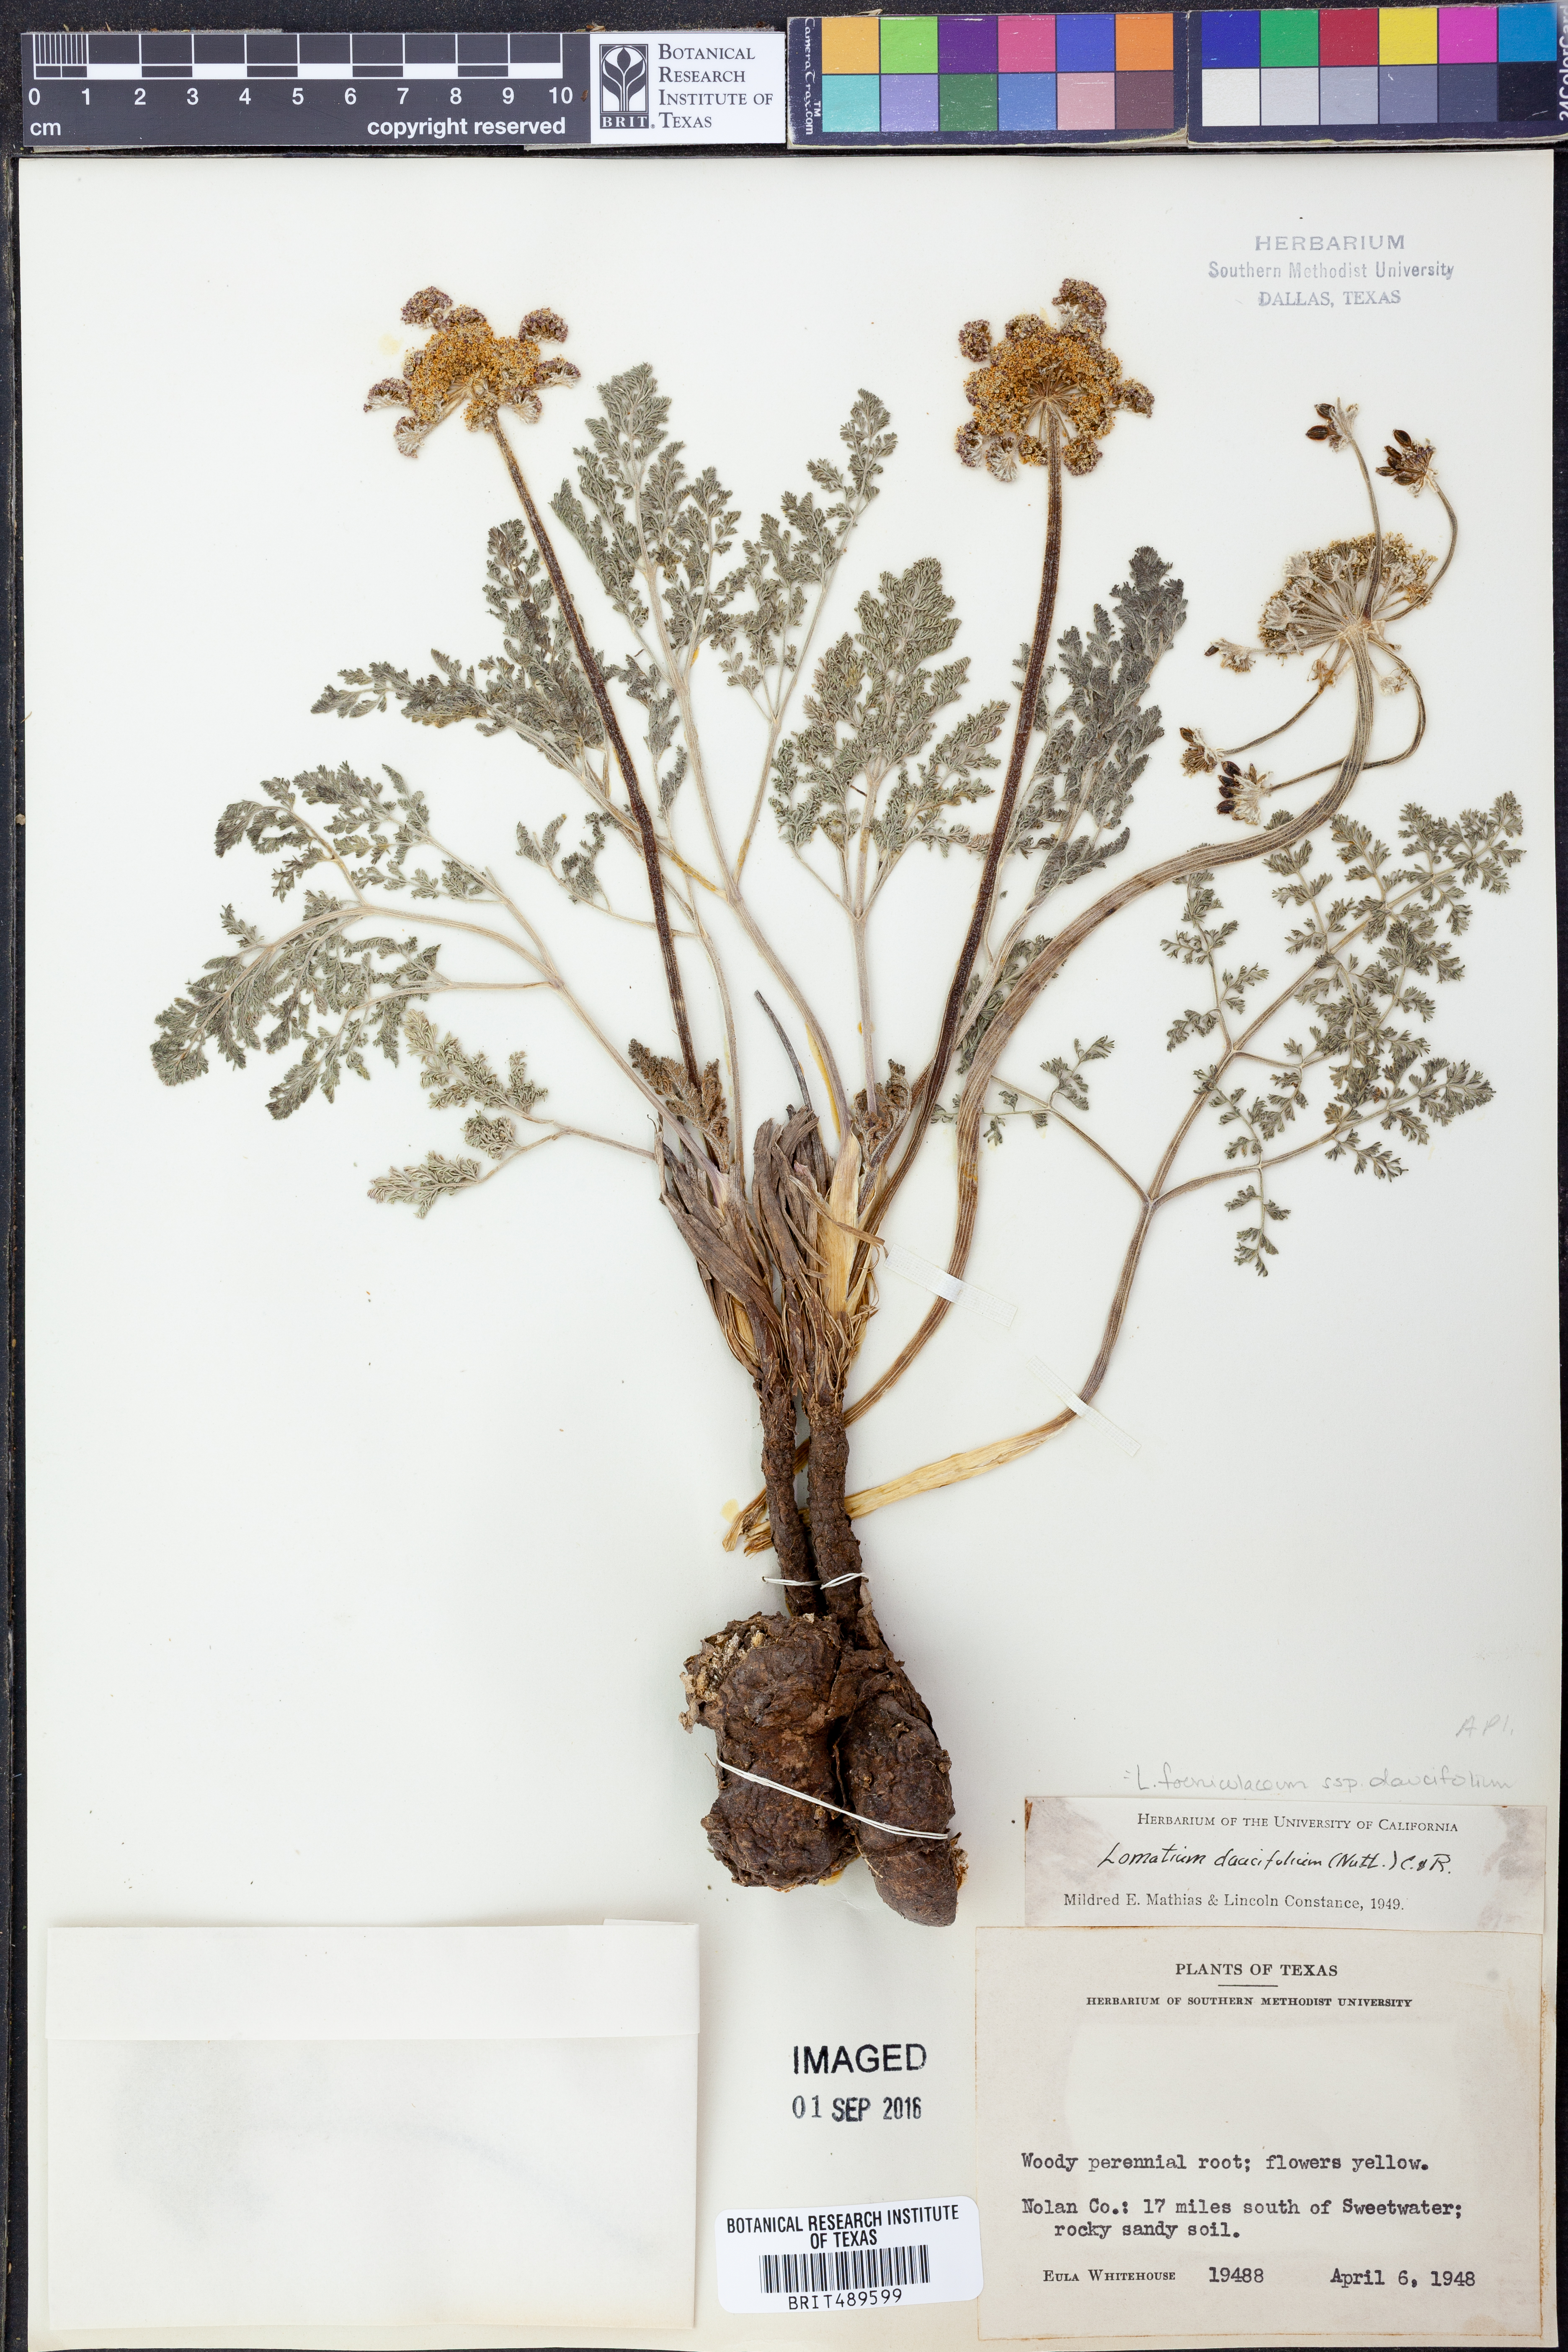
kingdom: Plantae
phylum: Tracheophyta
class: Magnoliopsida
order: Apiales
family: Apiaceae
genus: Lomatium
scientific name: Lomatium foeniculaceum
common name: Desert-parsley
